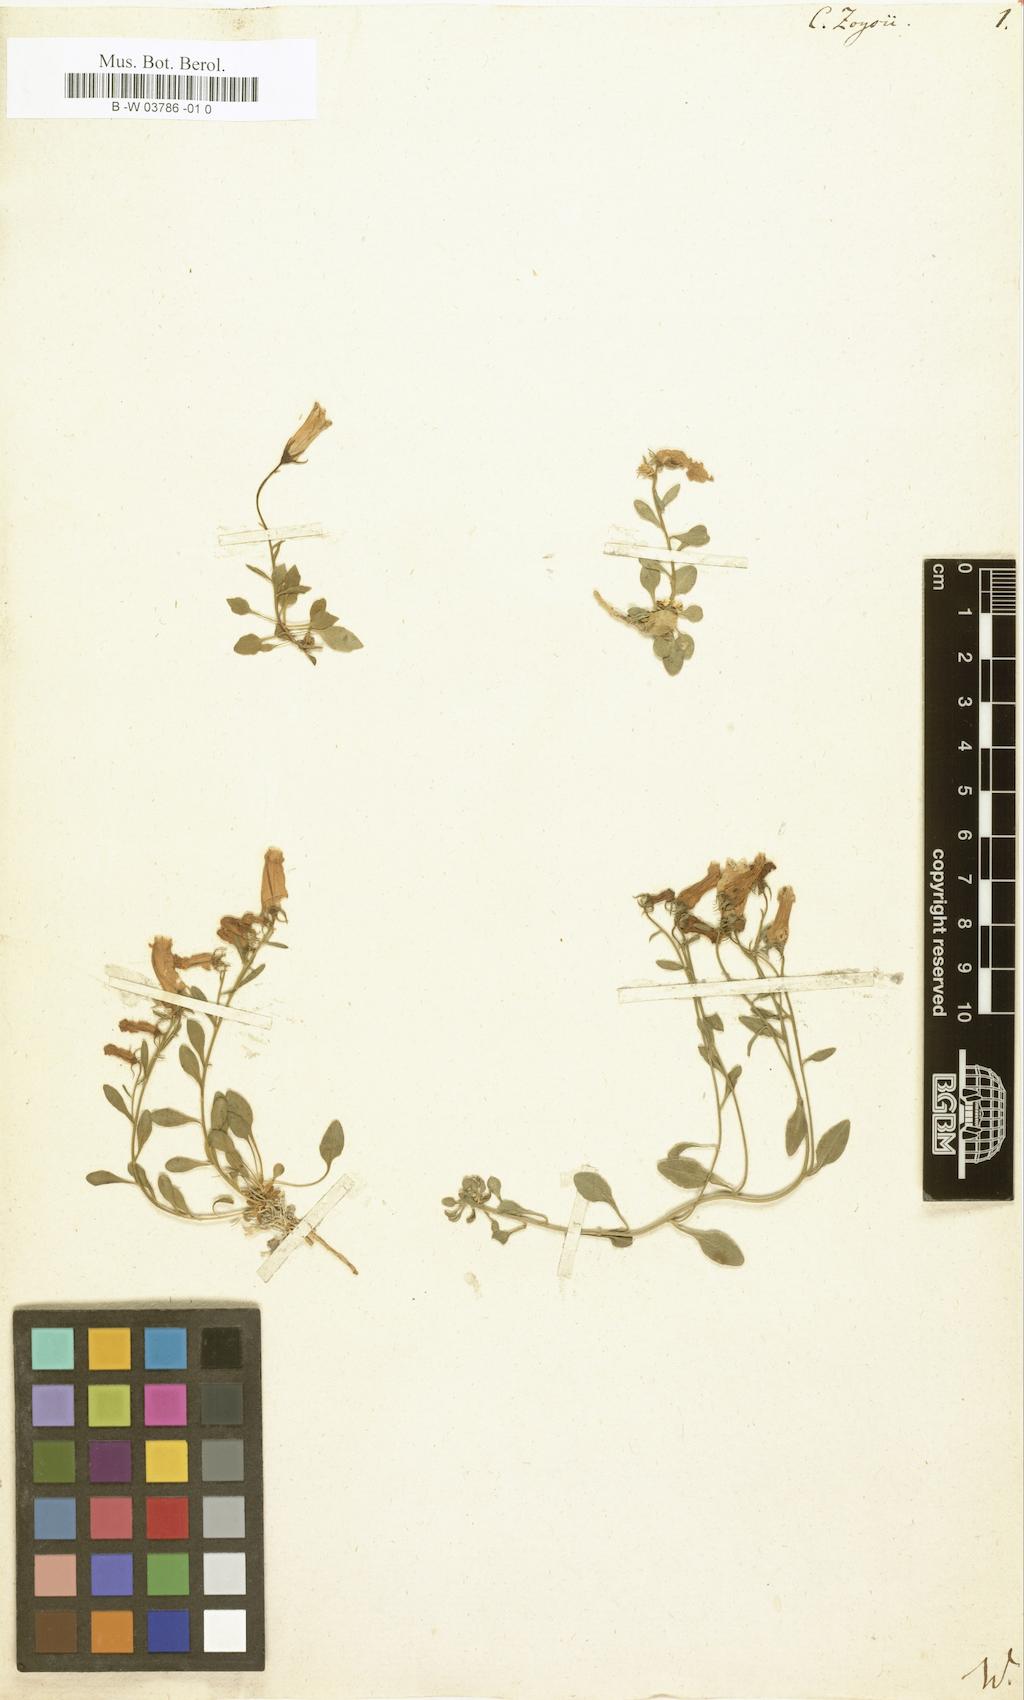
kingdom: Plantae
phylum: Tracheophyta
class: Magnoliopsida
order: Asterales
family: Campanulaceae
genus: Favratia
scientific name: Favratia zoysii
